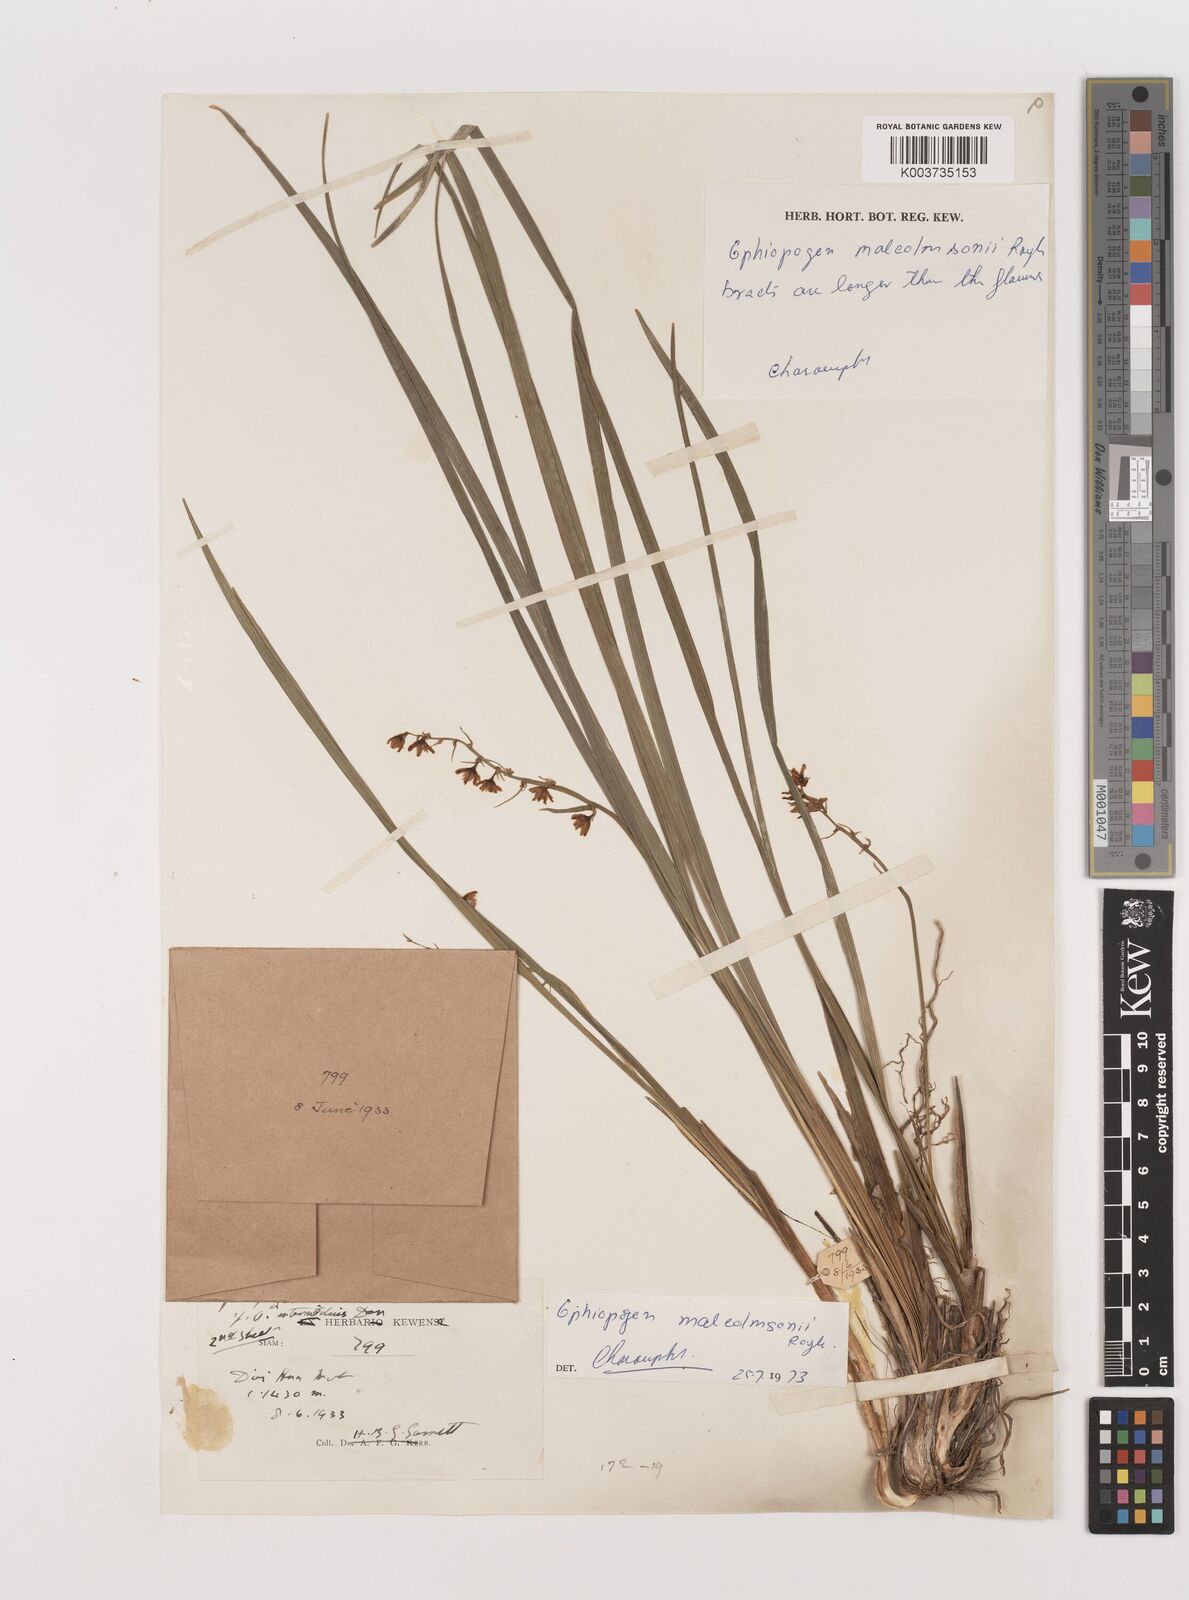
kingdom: Plantae
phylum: Tracheophyta
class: Liliopsida
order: Asparagales
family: Asparagaceae
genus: Ophiopogon
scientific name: Ophiopogon malcolmsonii
